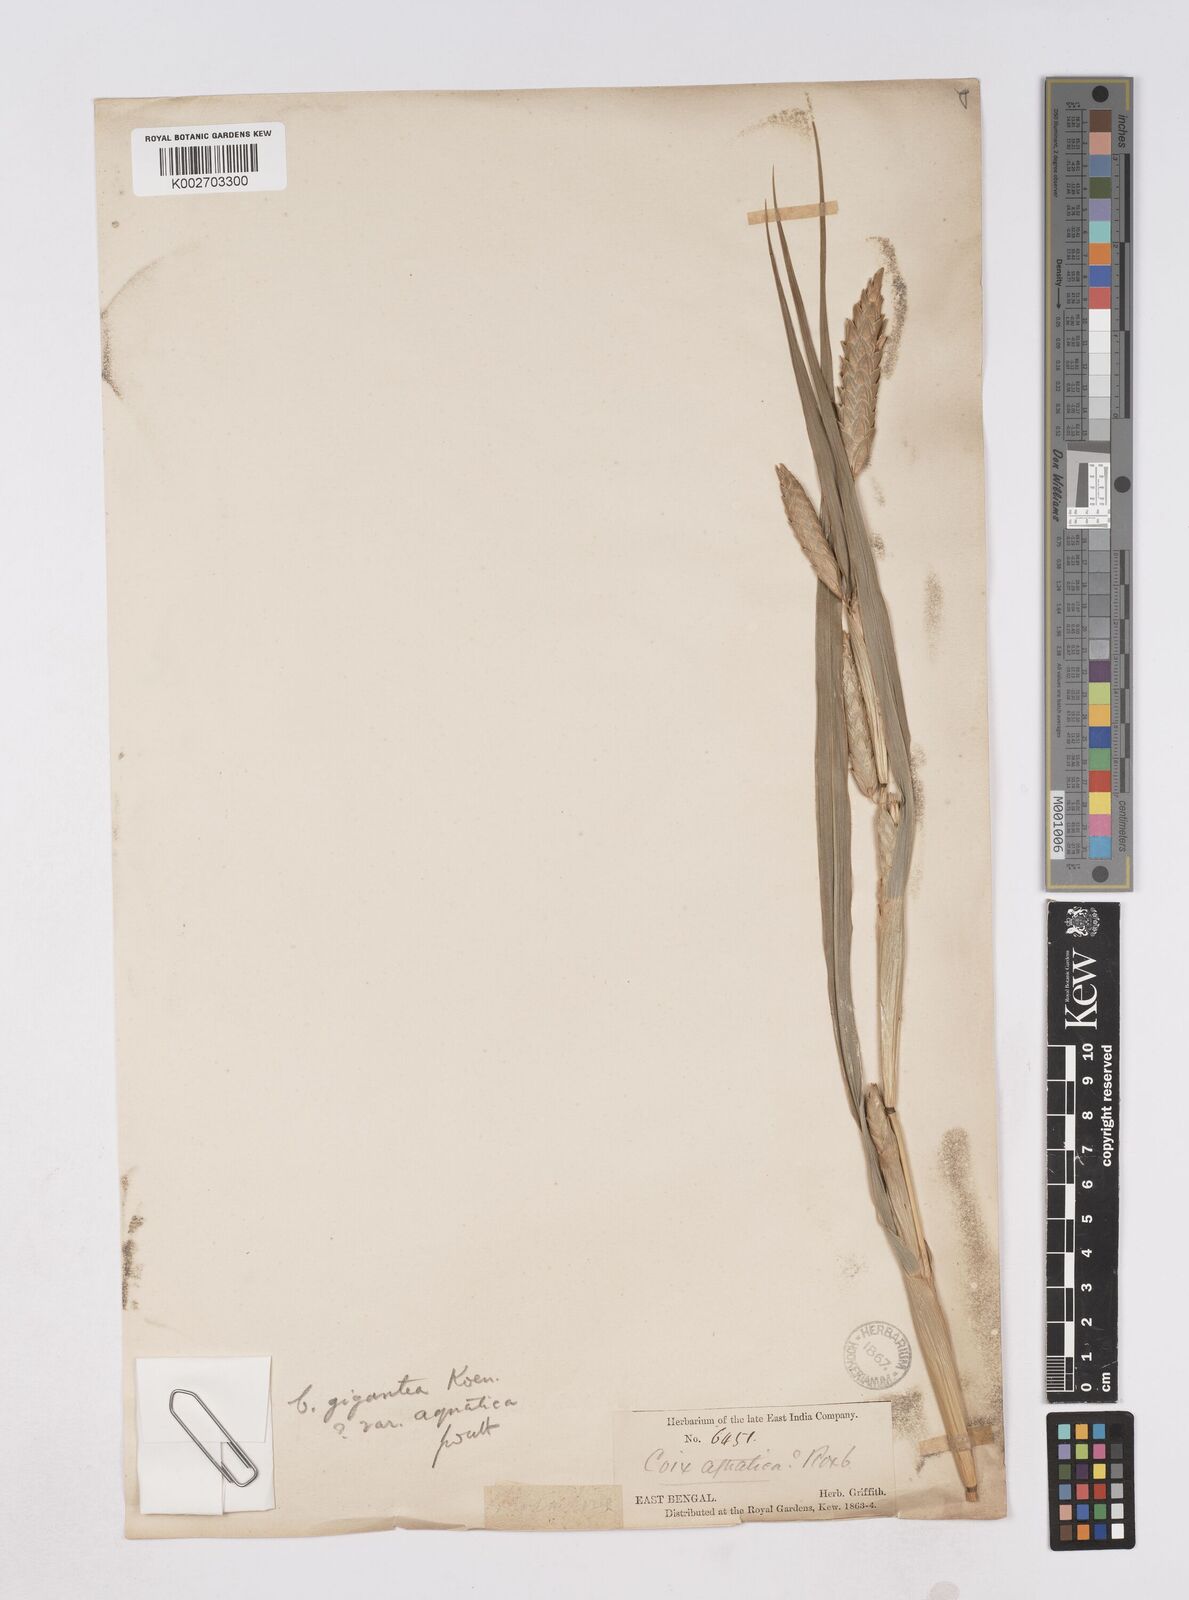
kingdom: Plantae
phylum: Tracheophyta
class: Liliopsida
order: Poales
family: Poaceae
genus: Polytoca
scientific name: Polytoca gigantea
